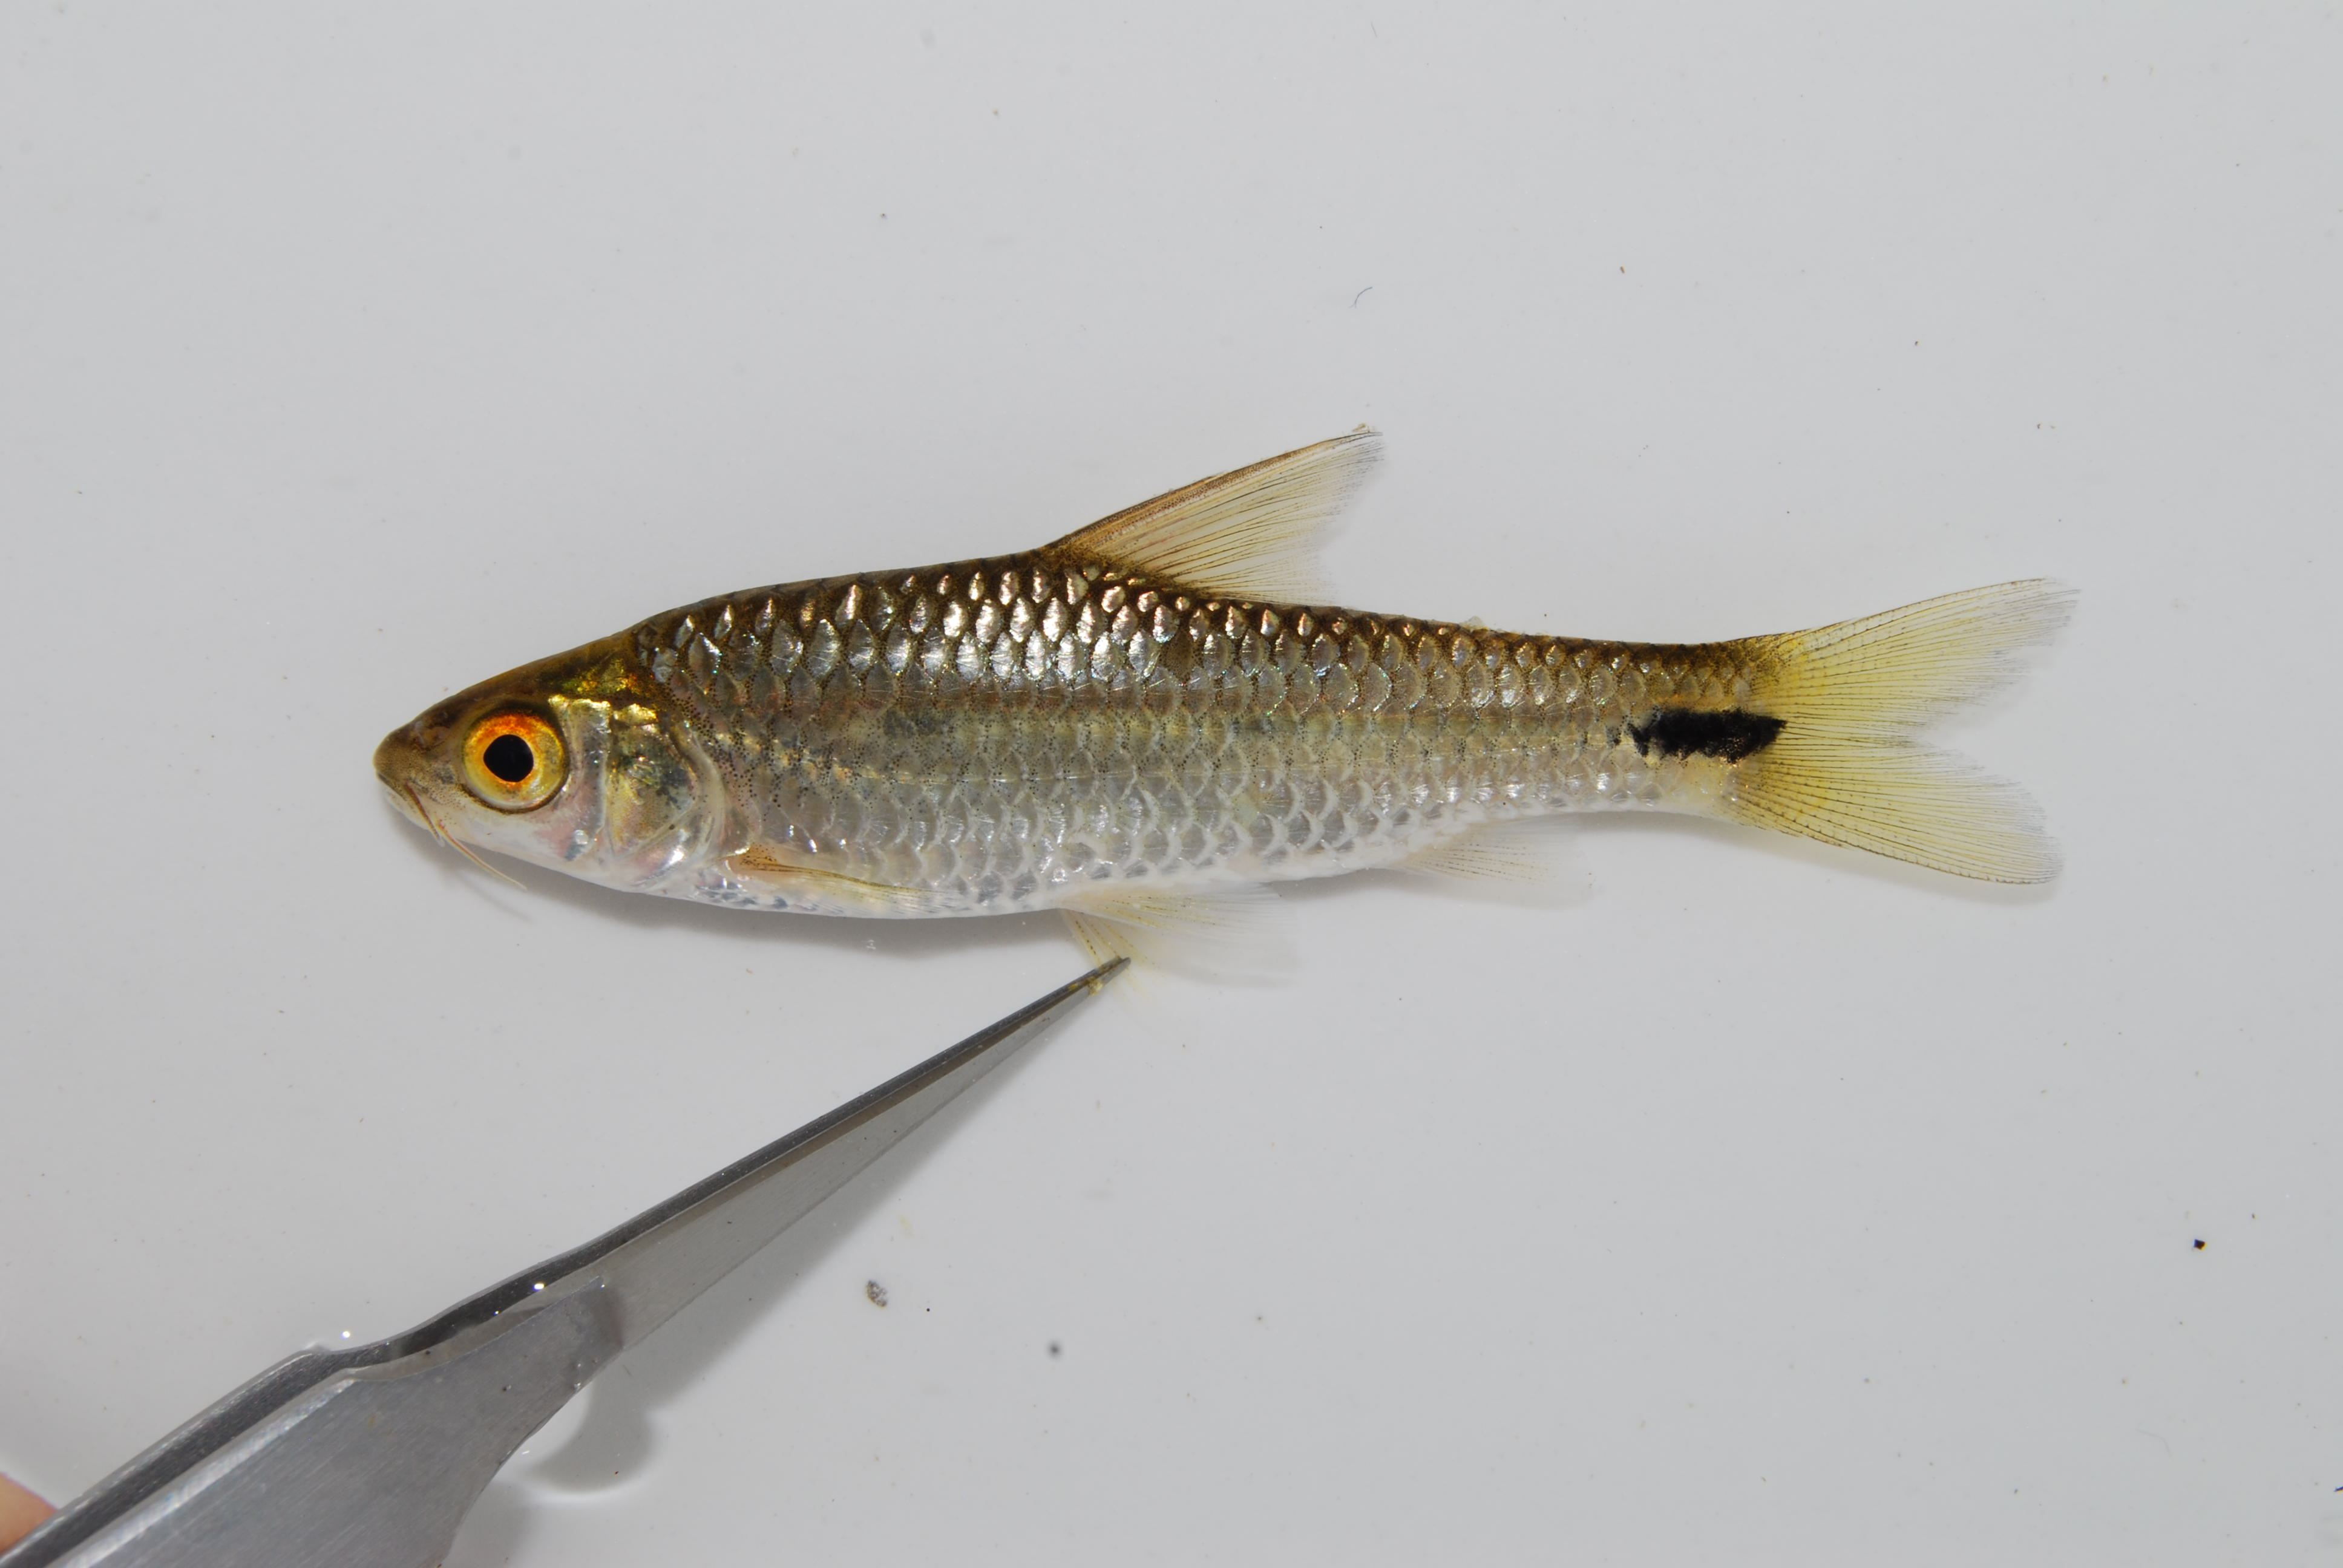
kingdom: Animalia
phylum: Chordata
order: Cypriniformes
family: Cyprinidae
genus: Enteromius
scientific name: Enteromius poechii
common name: Dashtail barb
